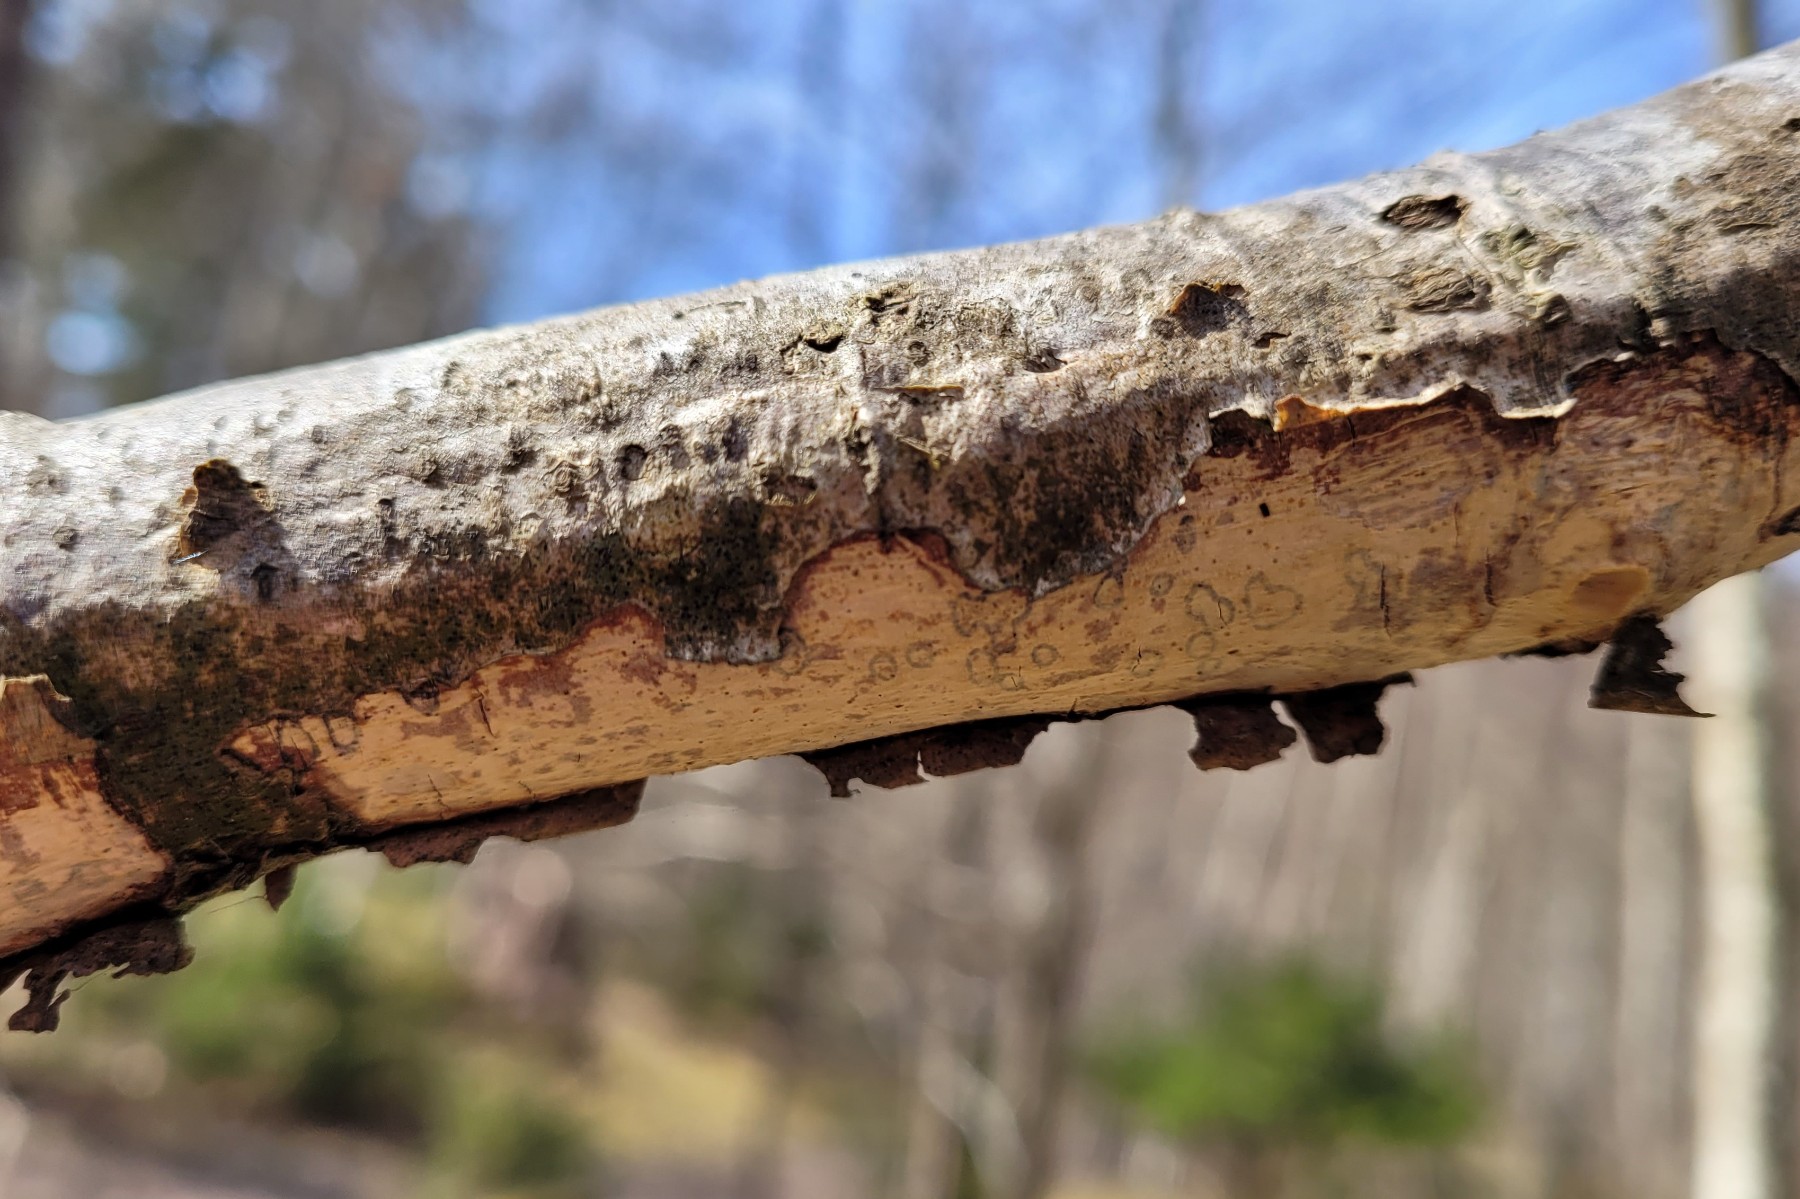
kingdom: Fungi
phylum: Basidiomycota
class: Agaricomycetes
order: Corticiales
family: Vuilleminiaceae
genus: Vuilleminia
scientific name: Vuilleminia comedens
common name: almindelig barksprænger
